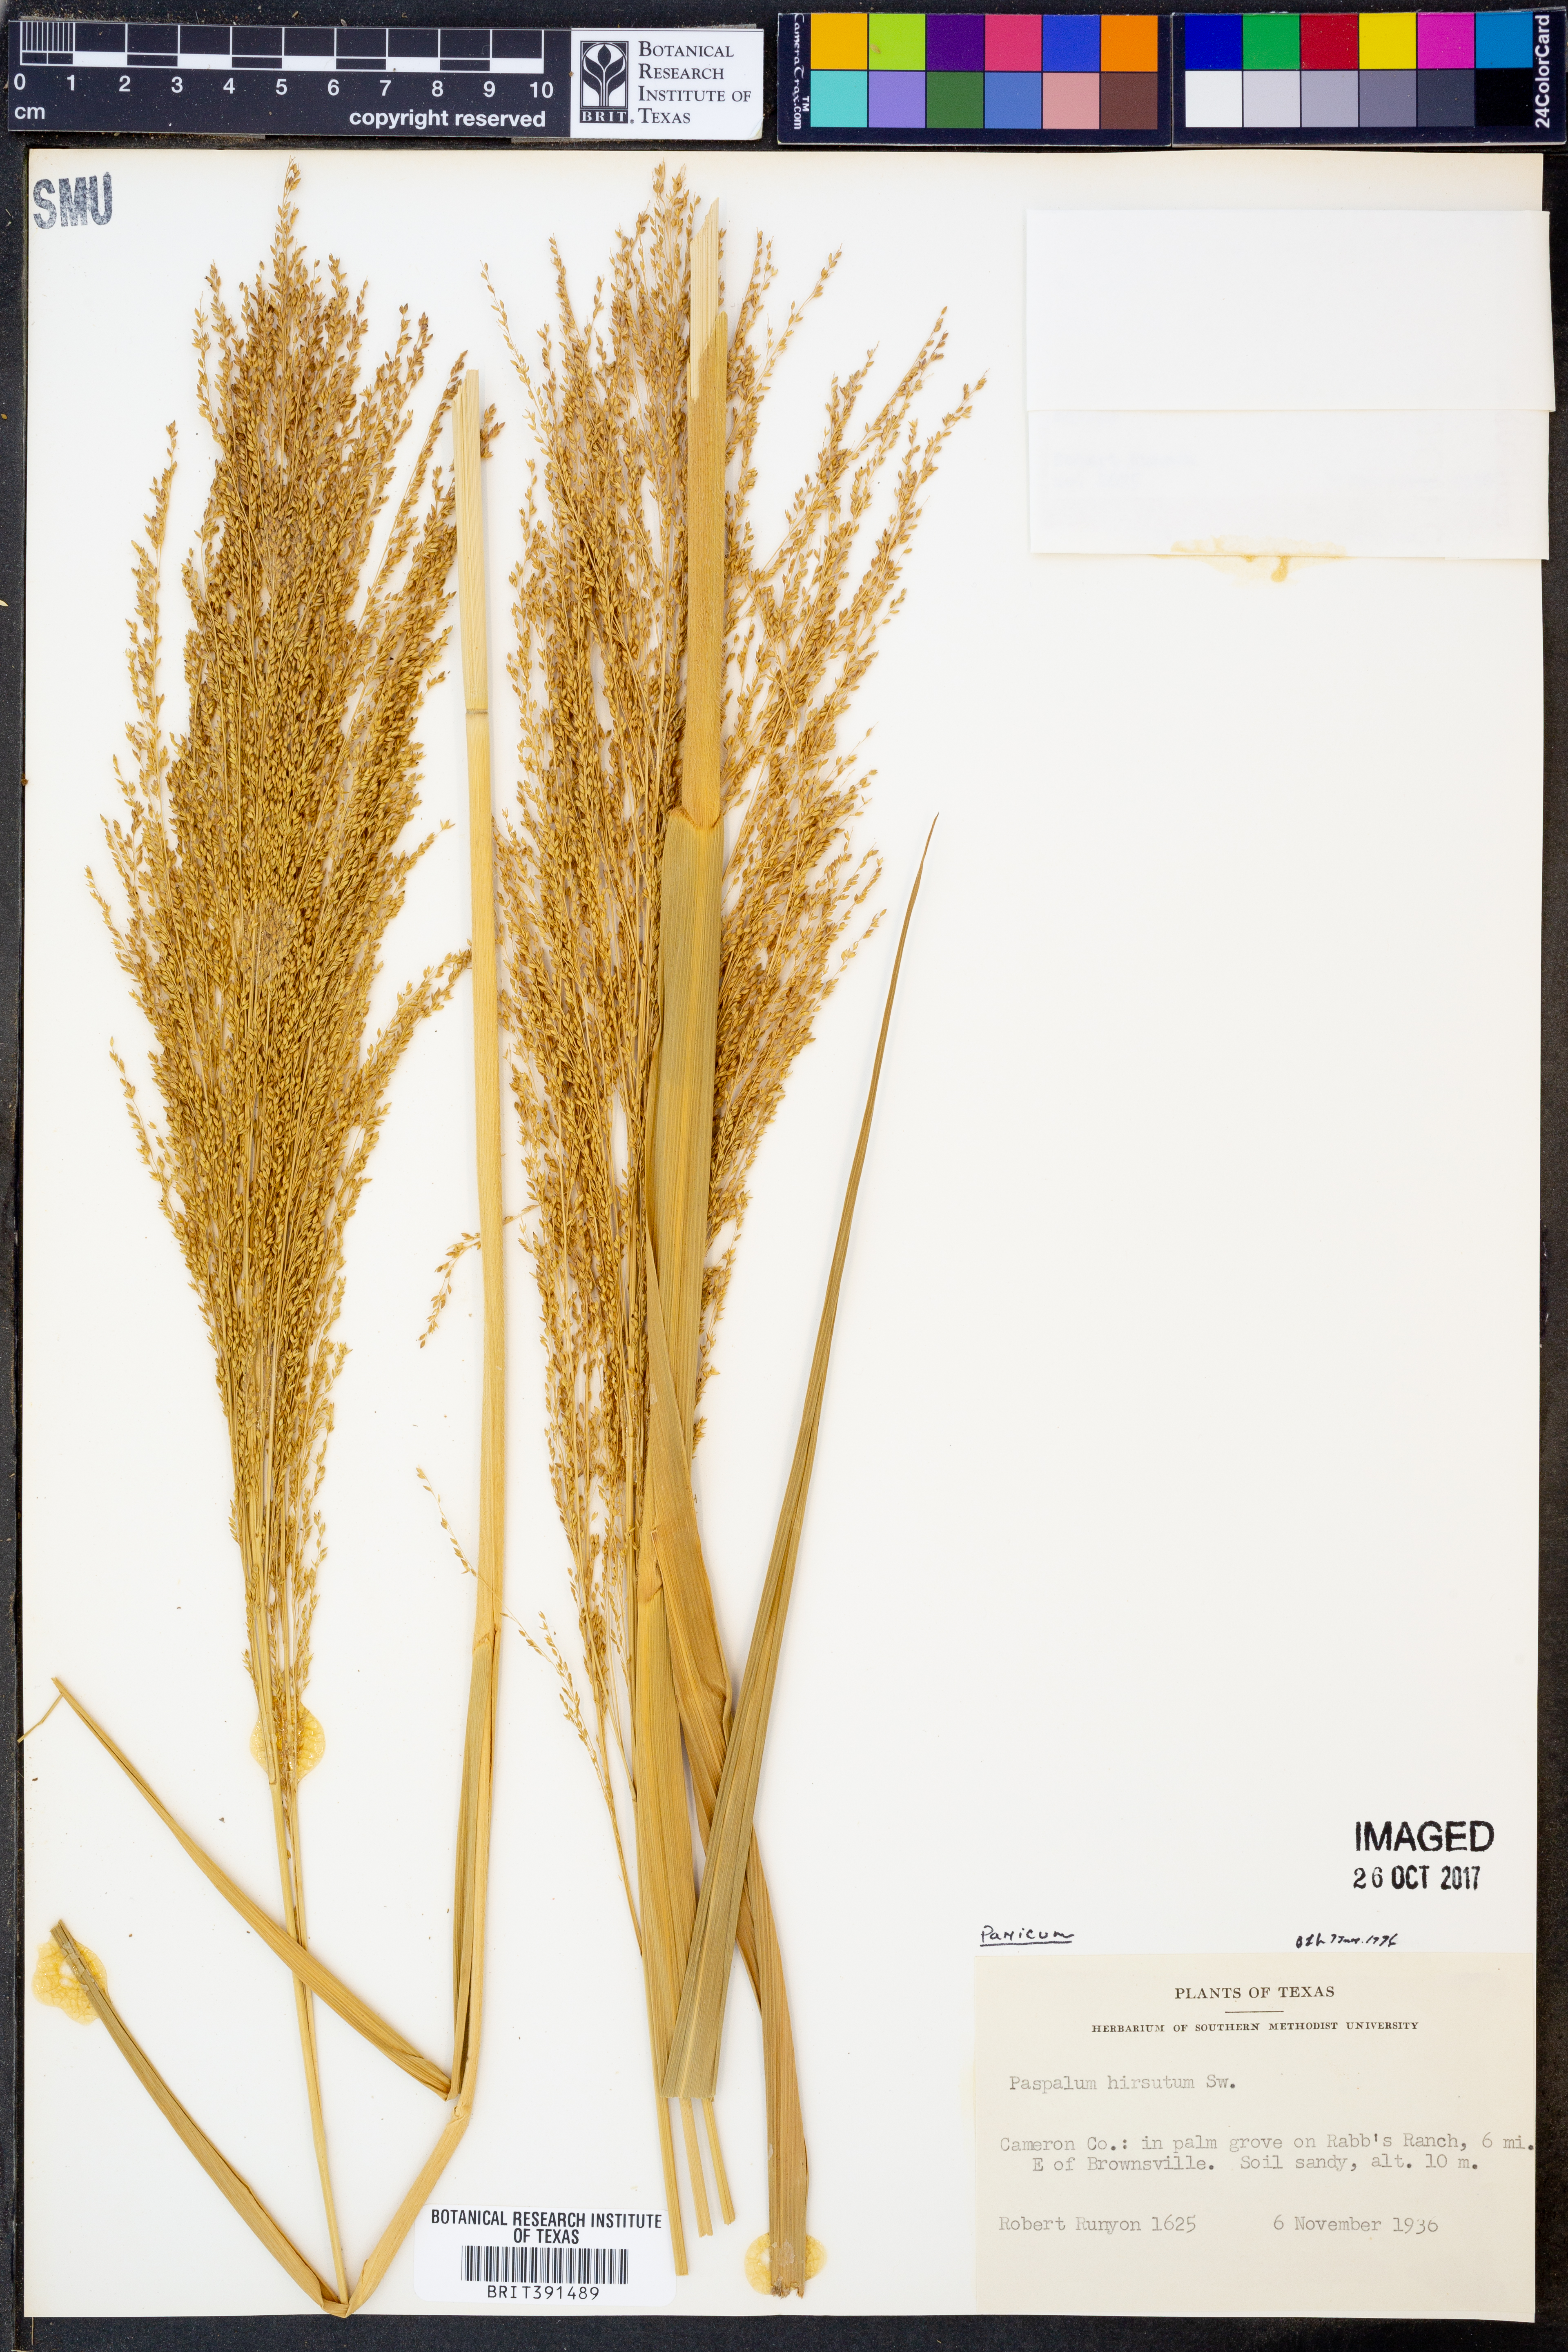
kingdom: Plantae
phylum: Tracheophyta
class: Liliopsida
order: Poales
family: Poaceae
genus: Paspalum
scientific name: Paspalum hirsutum
